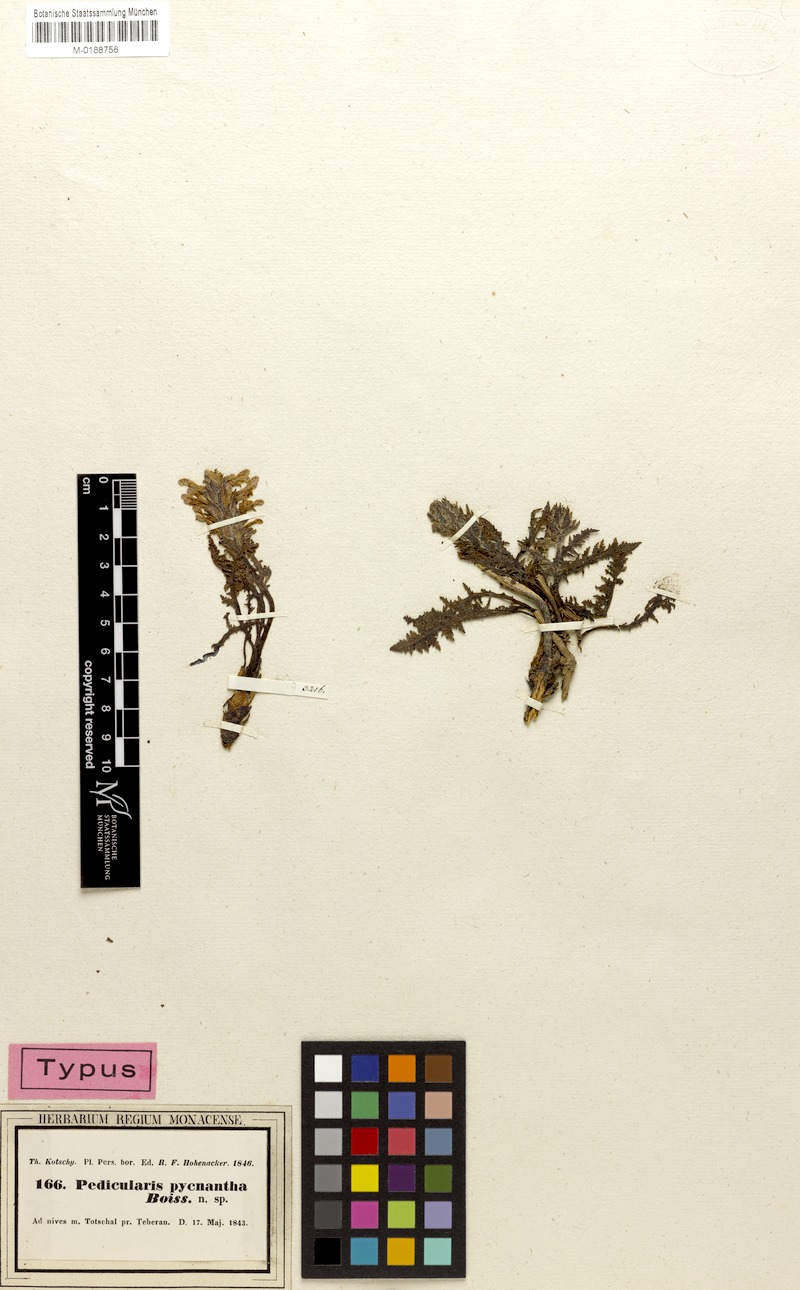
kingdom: Plantae
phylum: Tracheophyta
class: Magnoliopsida
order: Lamiales
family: Orobanchaceae
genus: Pedicularis
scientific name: Pedicularis pycnantha
